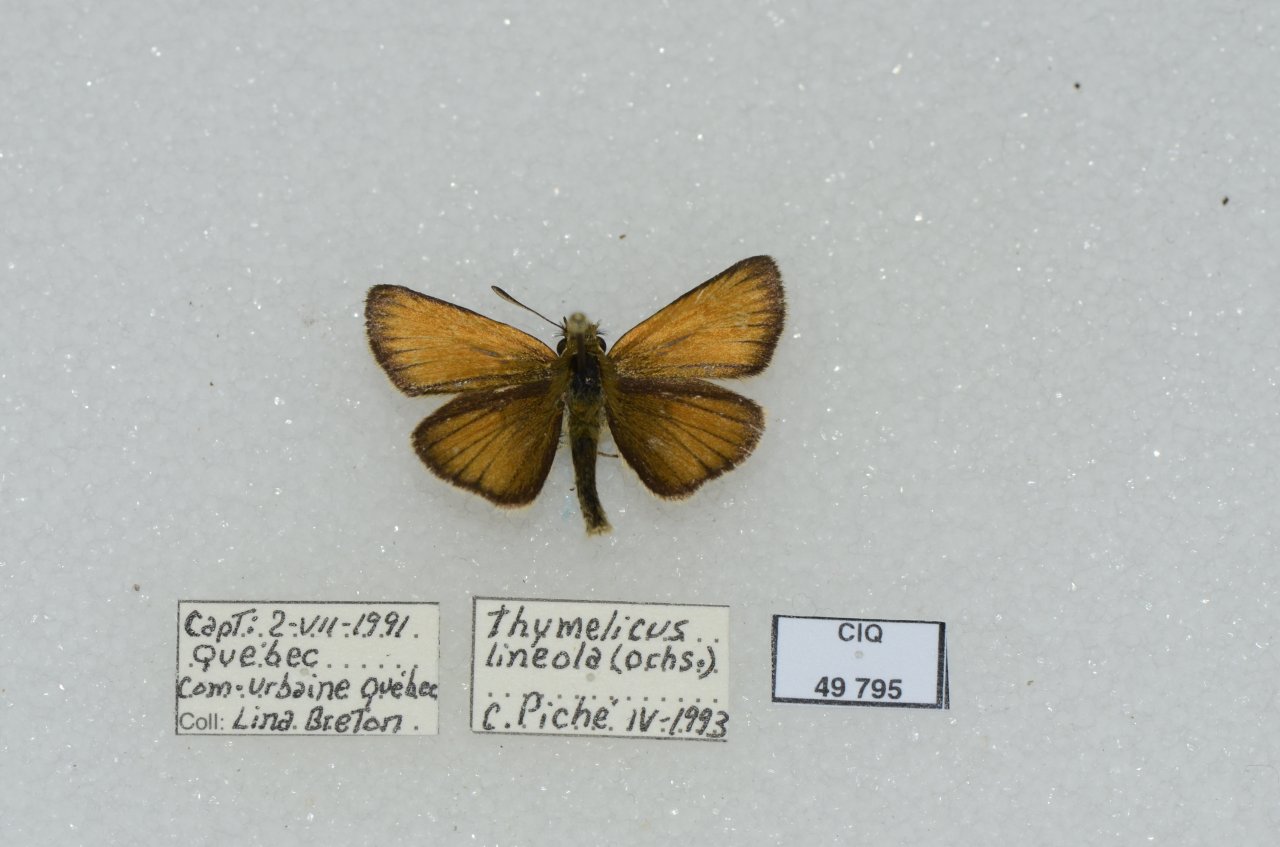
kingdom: Animalia
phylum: Arthropoda
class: Insecta
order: Lepidoptera
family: Hesperiidae
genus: Thymelicus
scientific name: Thymelicus lineola
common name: European Skipper
